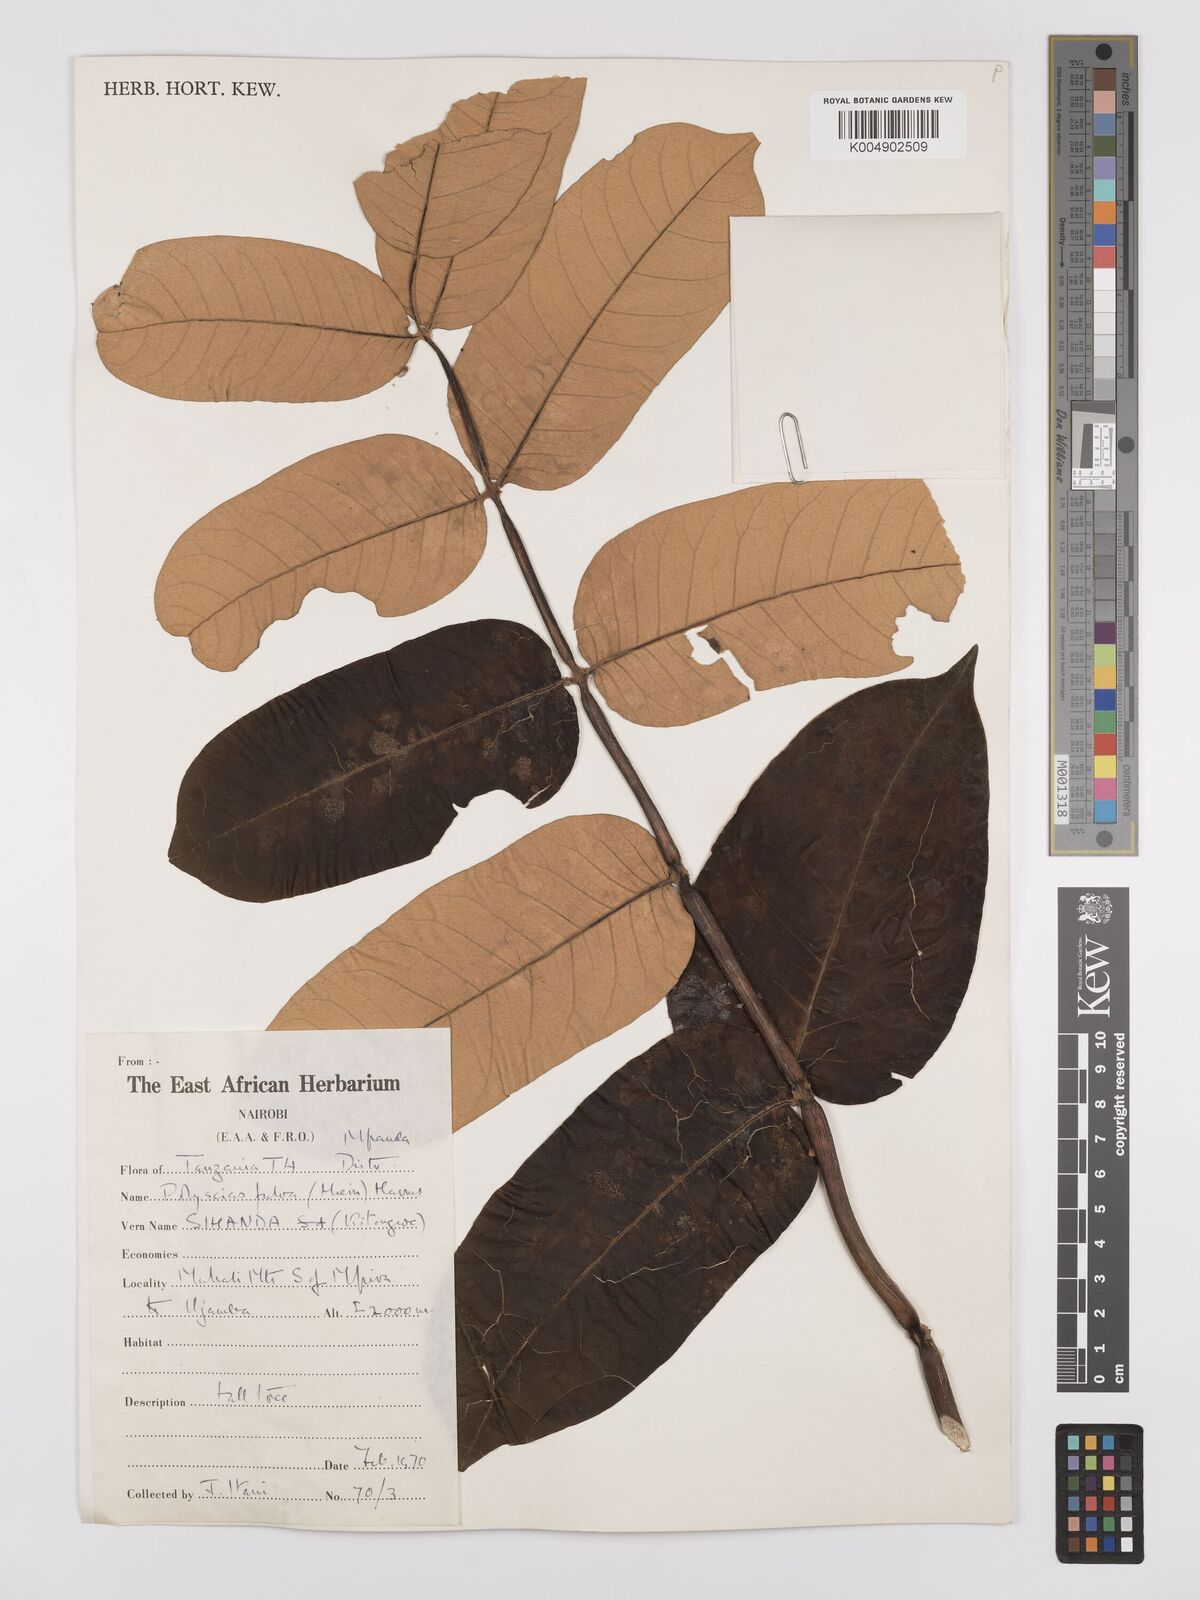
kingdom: Plantae
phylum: Tracheophyta
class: Magnoliopsida
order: Apiales
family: Araliaceae
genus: Polyscias
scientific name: Polyscias fulva
